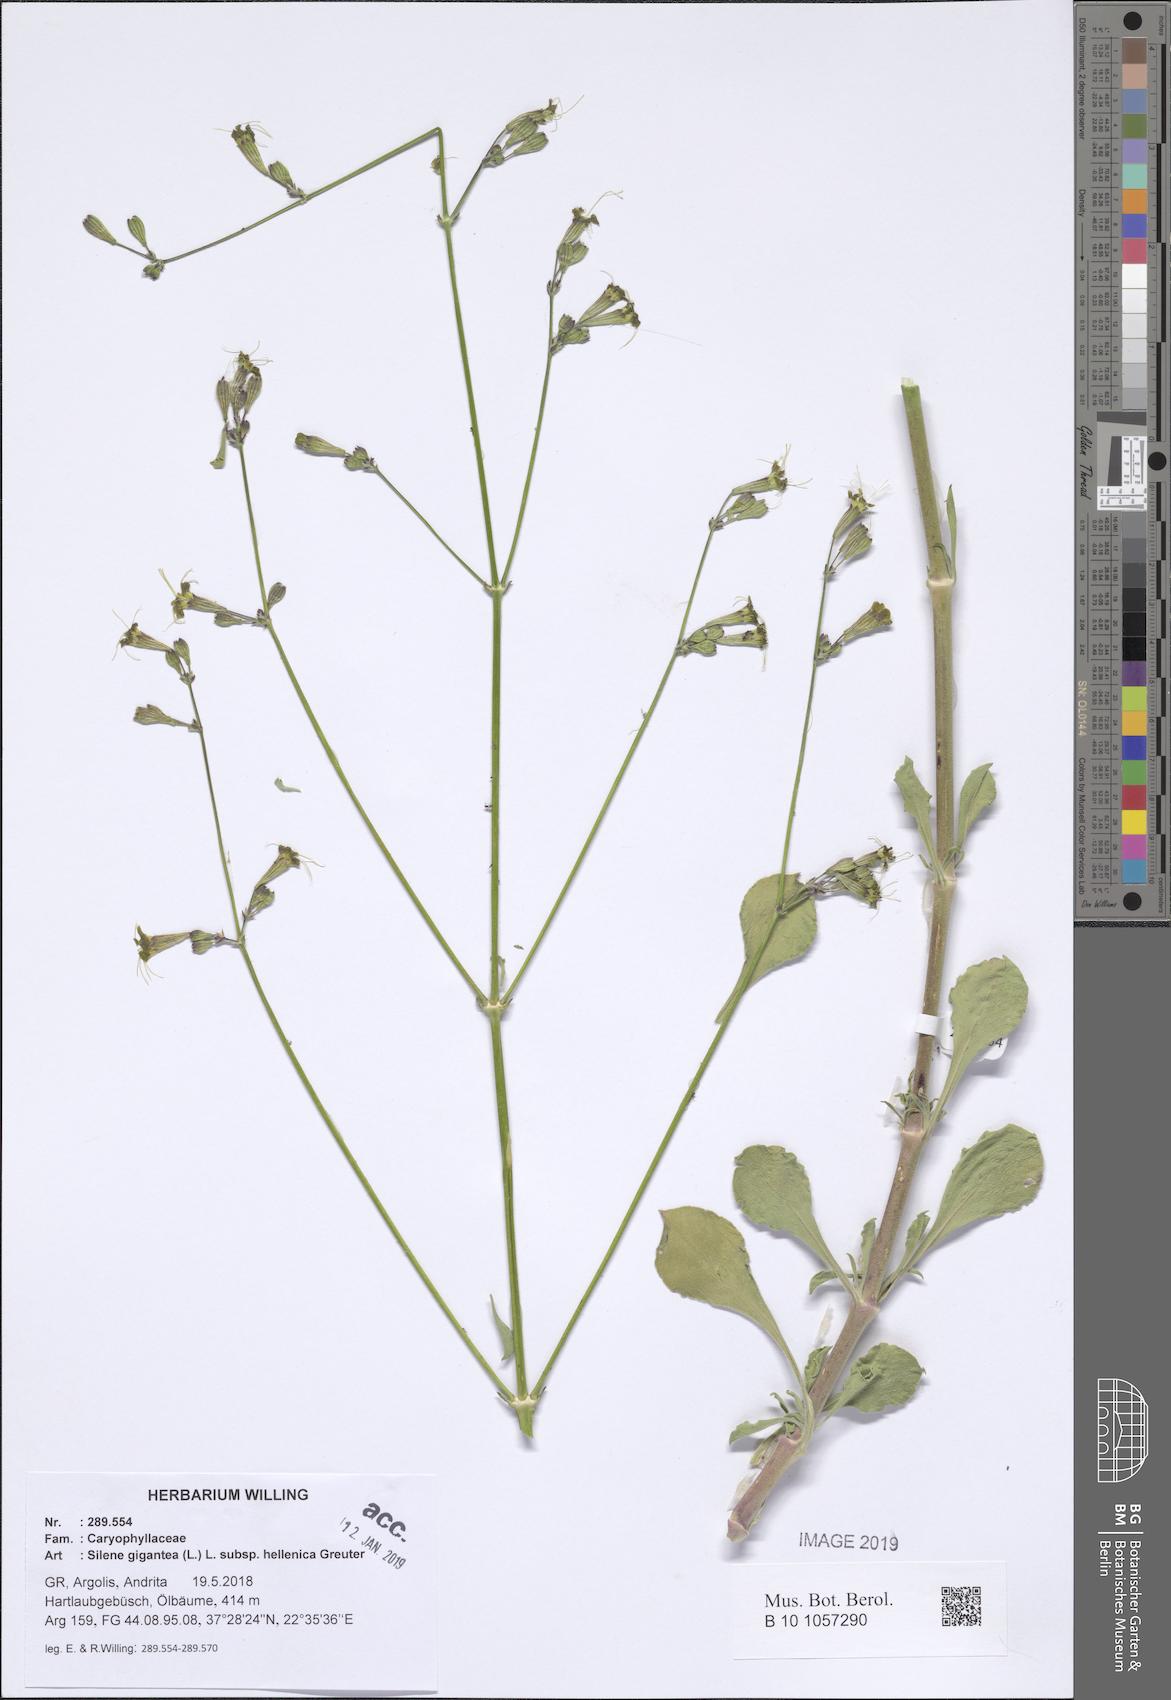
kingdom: Plantae
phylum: Tracheophyta
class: Magnoliopsida
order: Caryophyllales
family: Caryophyllaceae
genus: Silene
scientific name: Silene gigantea
